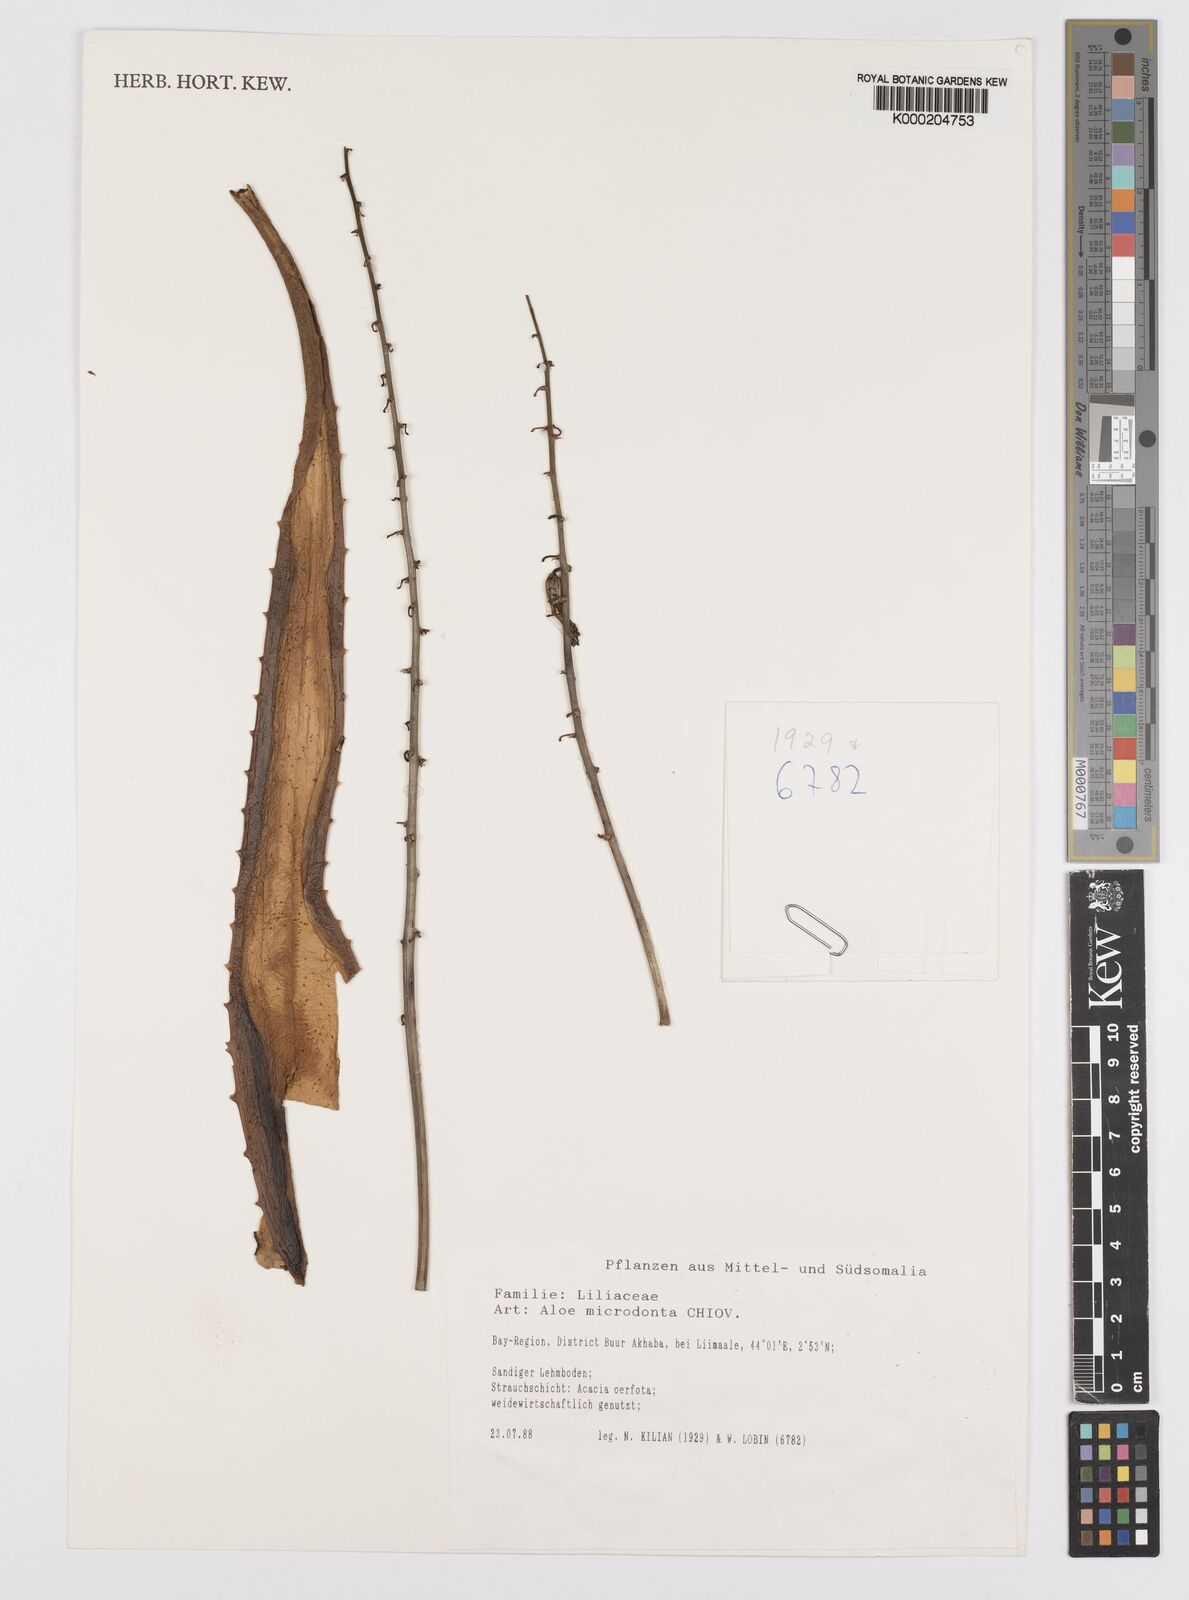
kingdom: Plantae
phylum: Tracheophyta
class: Liliopsida
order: Asparagales
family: Asphodelaceae
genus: Aloe
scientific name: Aloe microdonta
